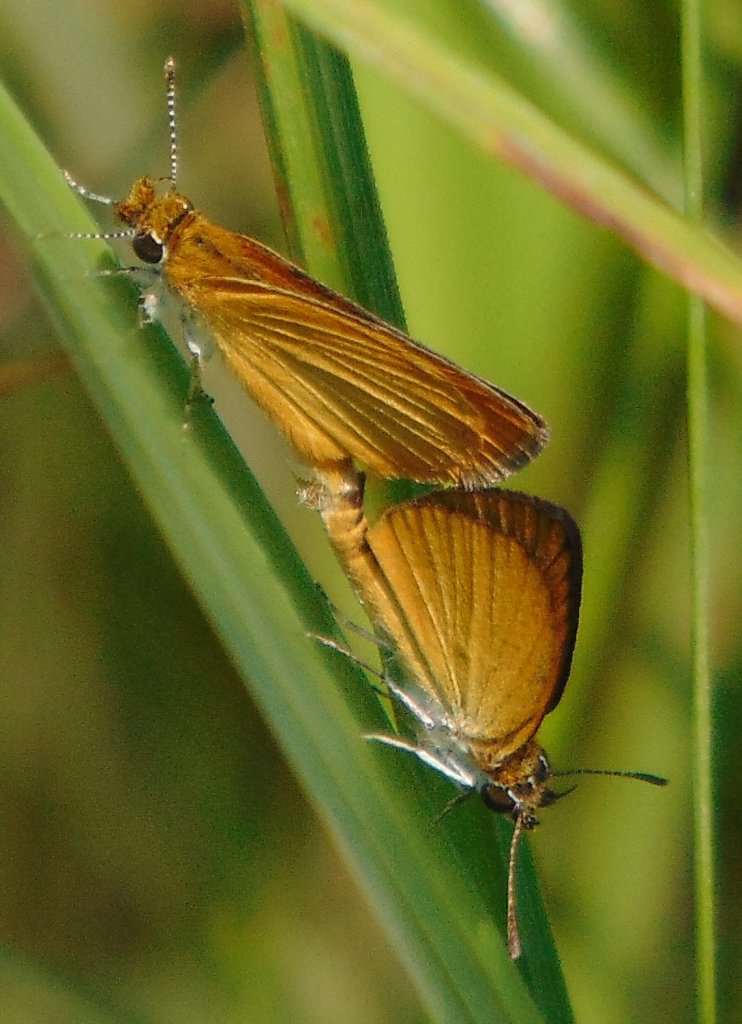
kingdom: Animalia
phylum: Arthropoda
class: Insecta
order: Lepidoptera
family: Hesperiidae
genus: Ancyloxypha
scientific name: Ancyloxypha numitor
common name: Least Skipper
